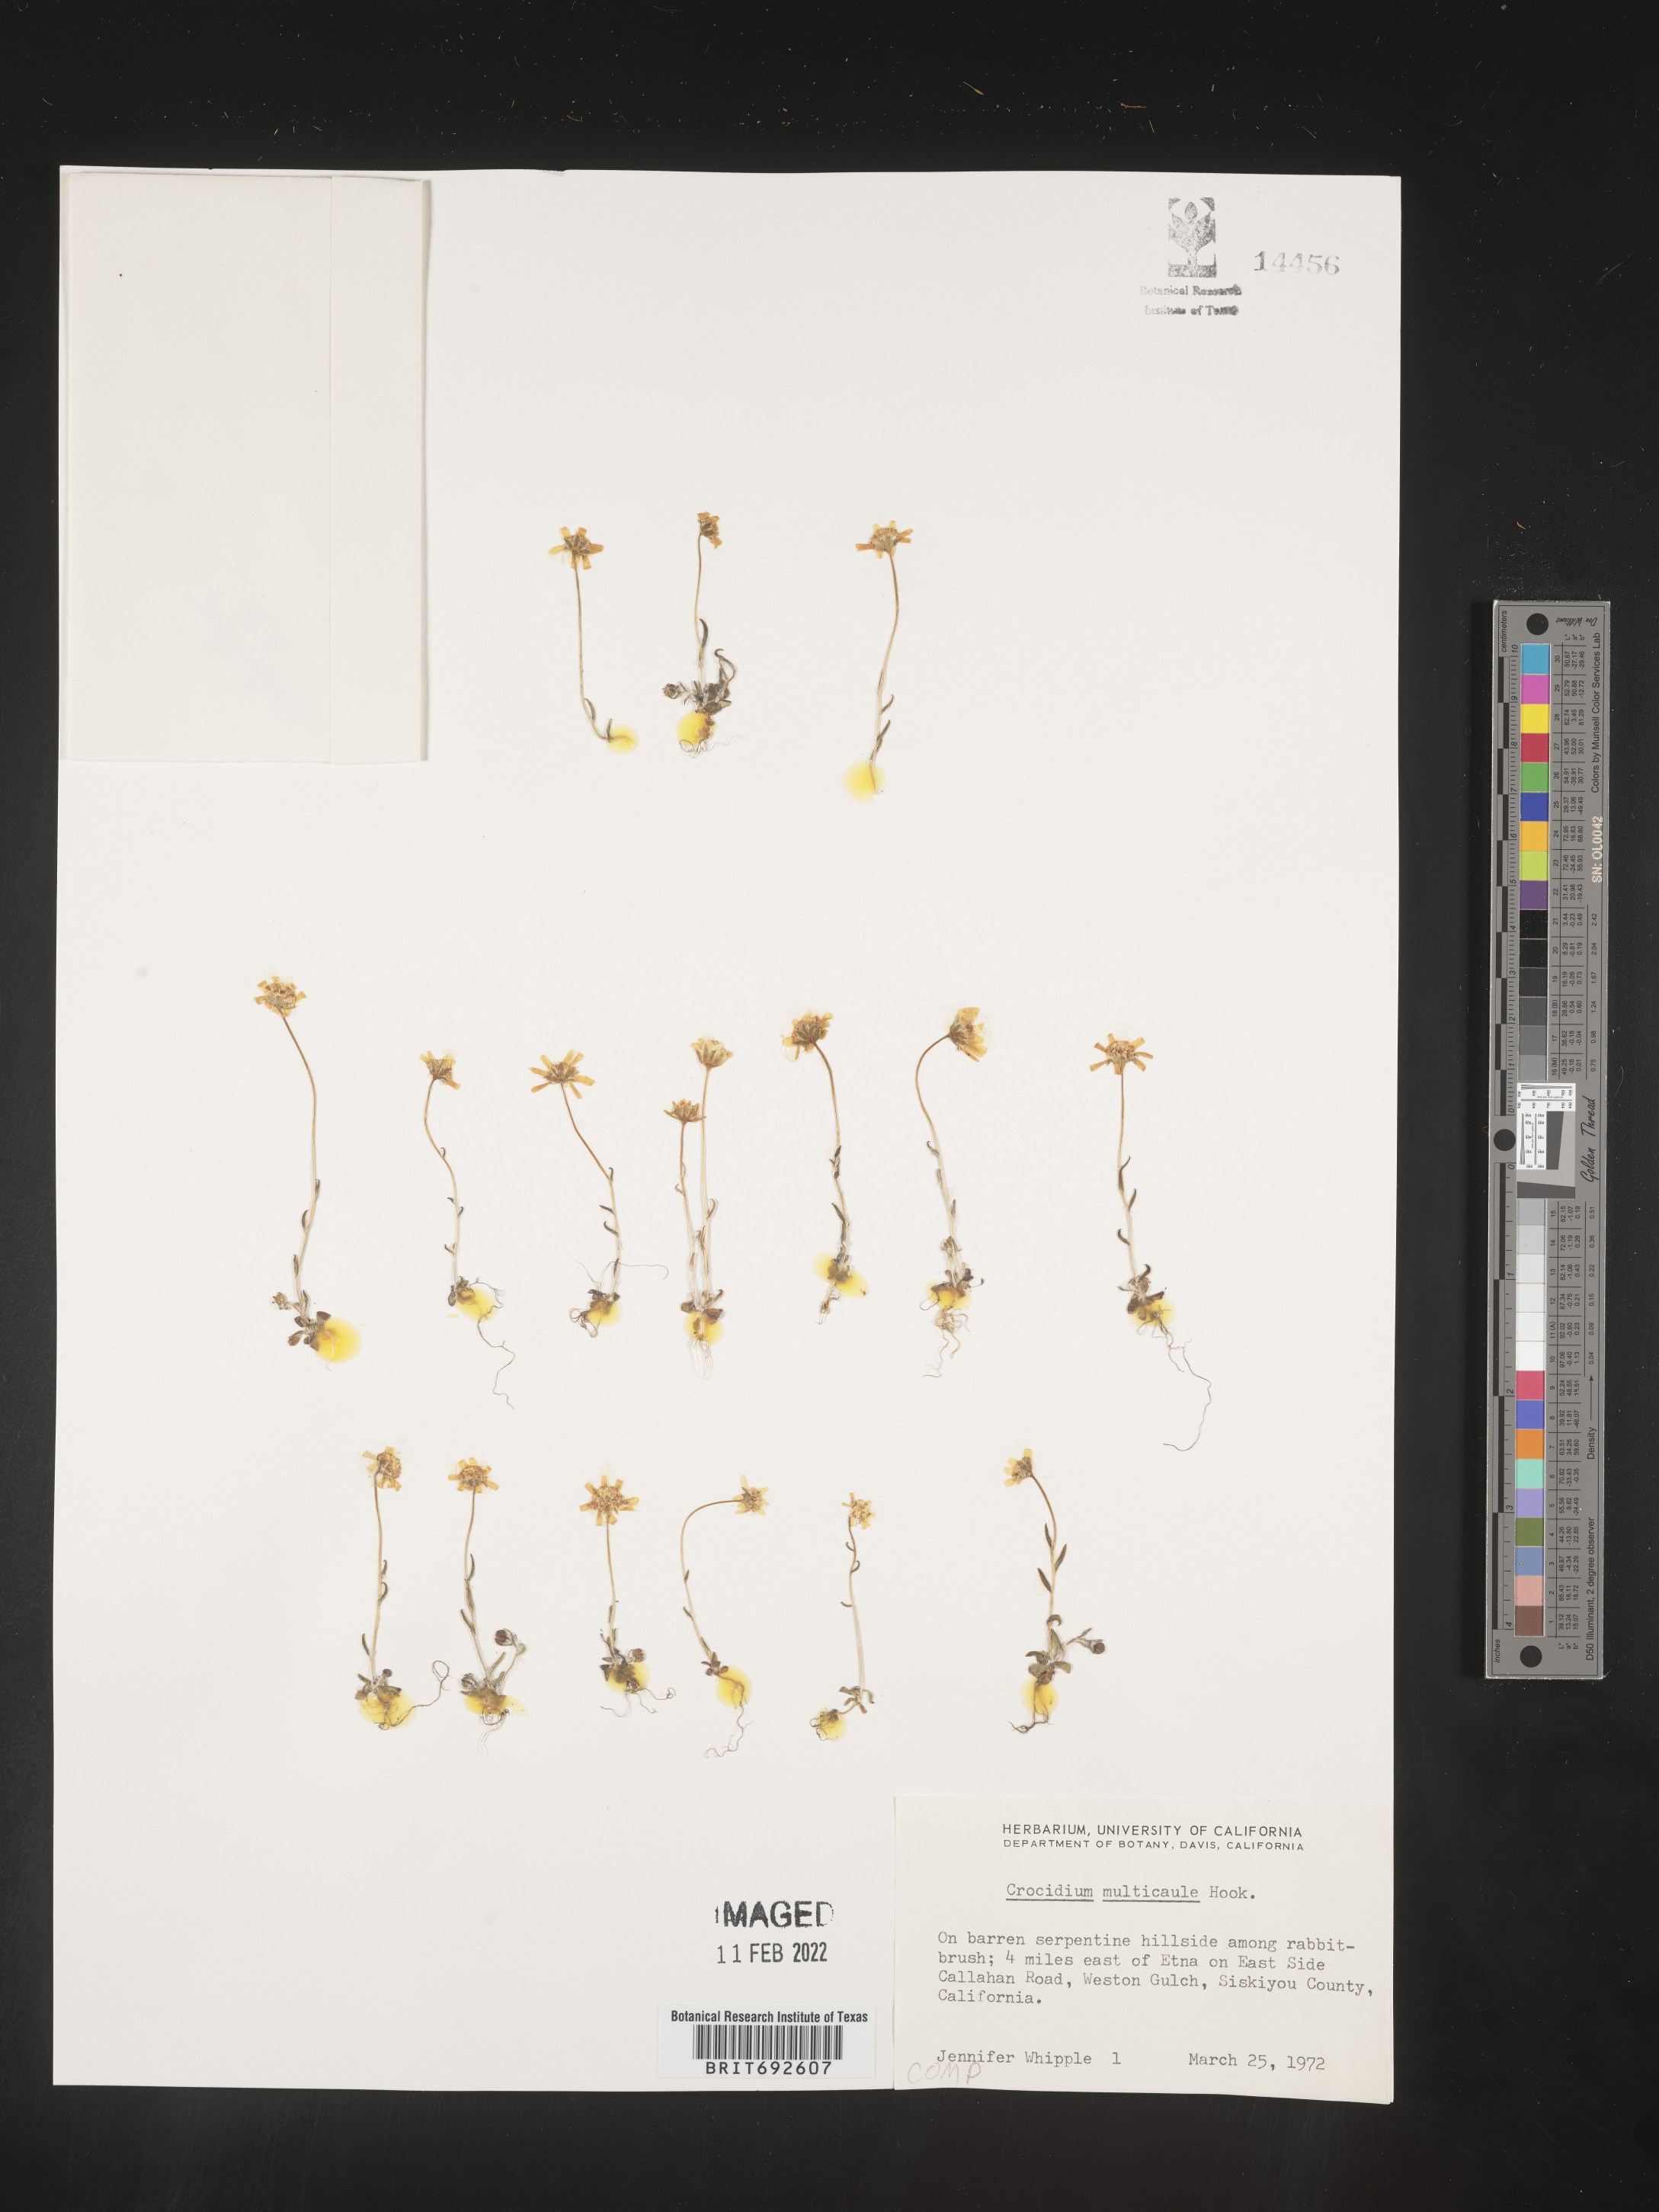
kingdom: Plantae
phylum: Tracheophyta
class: Magnoliopsida
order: Asterales
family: Asteraceae
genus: Crocidium
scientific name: Crocidium
